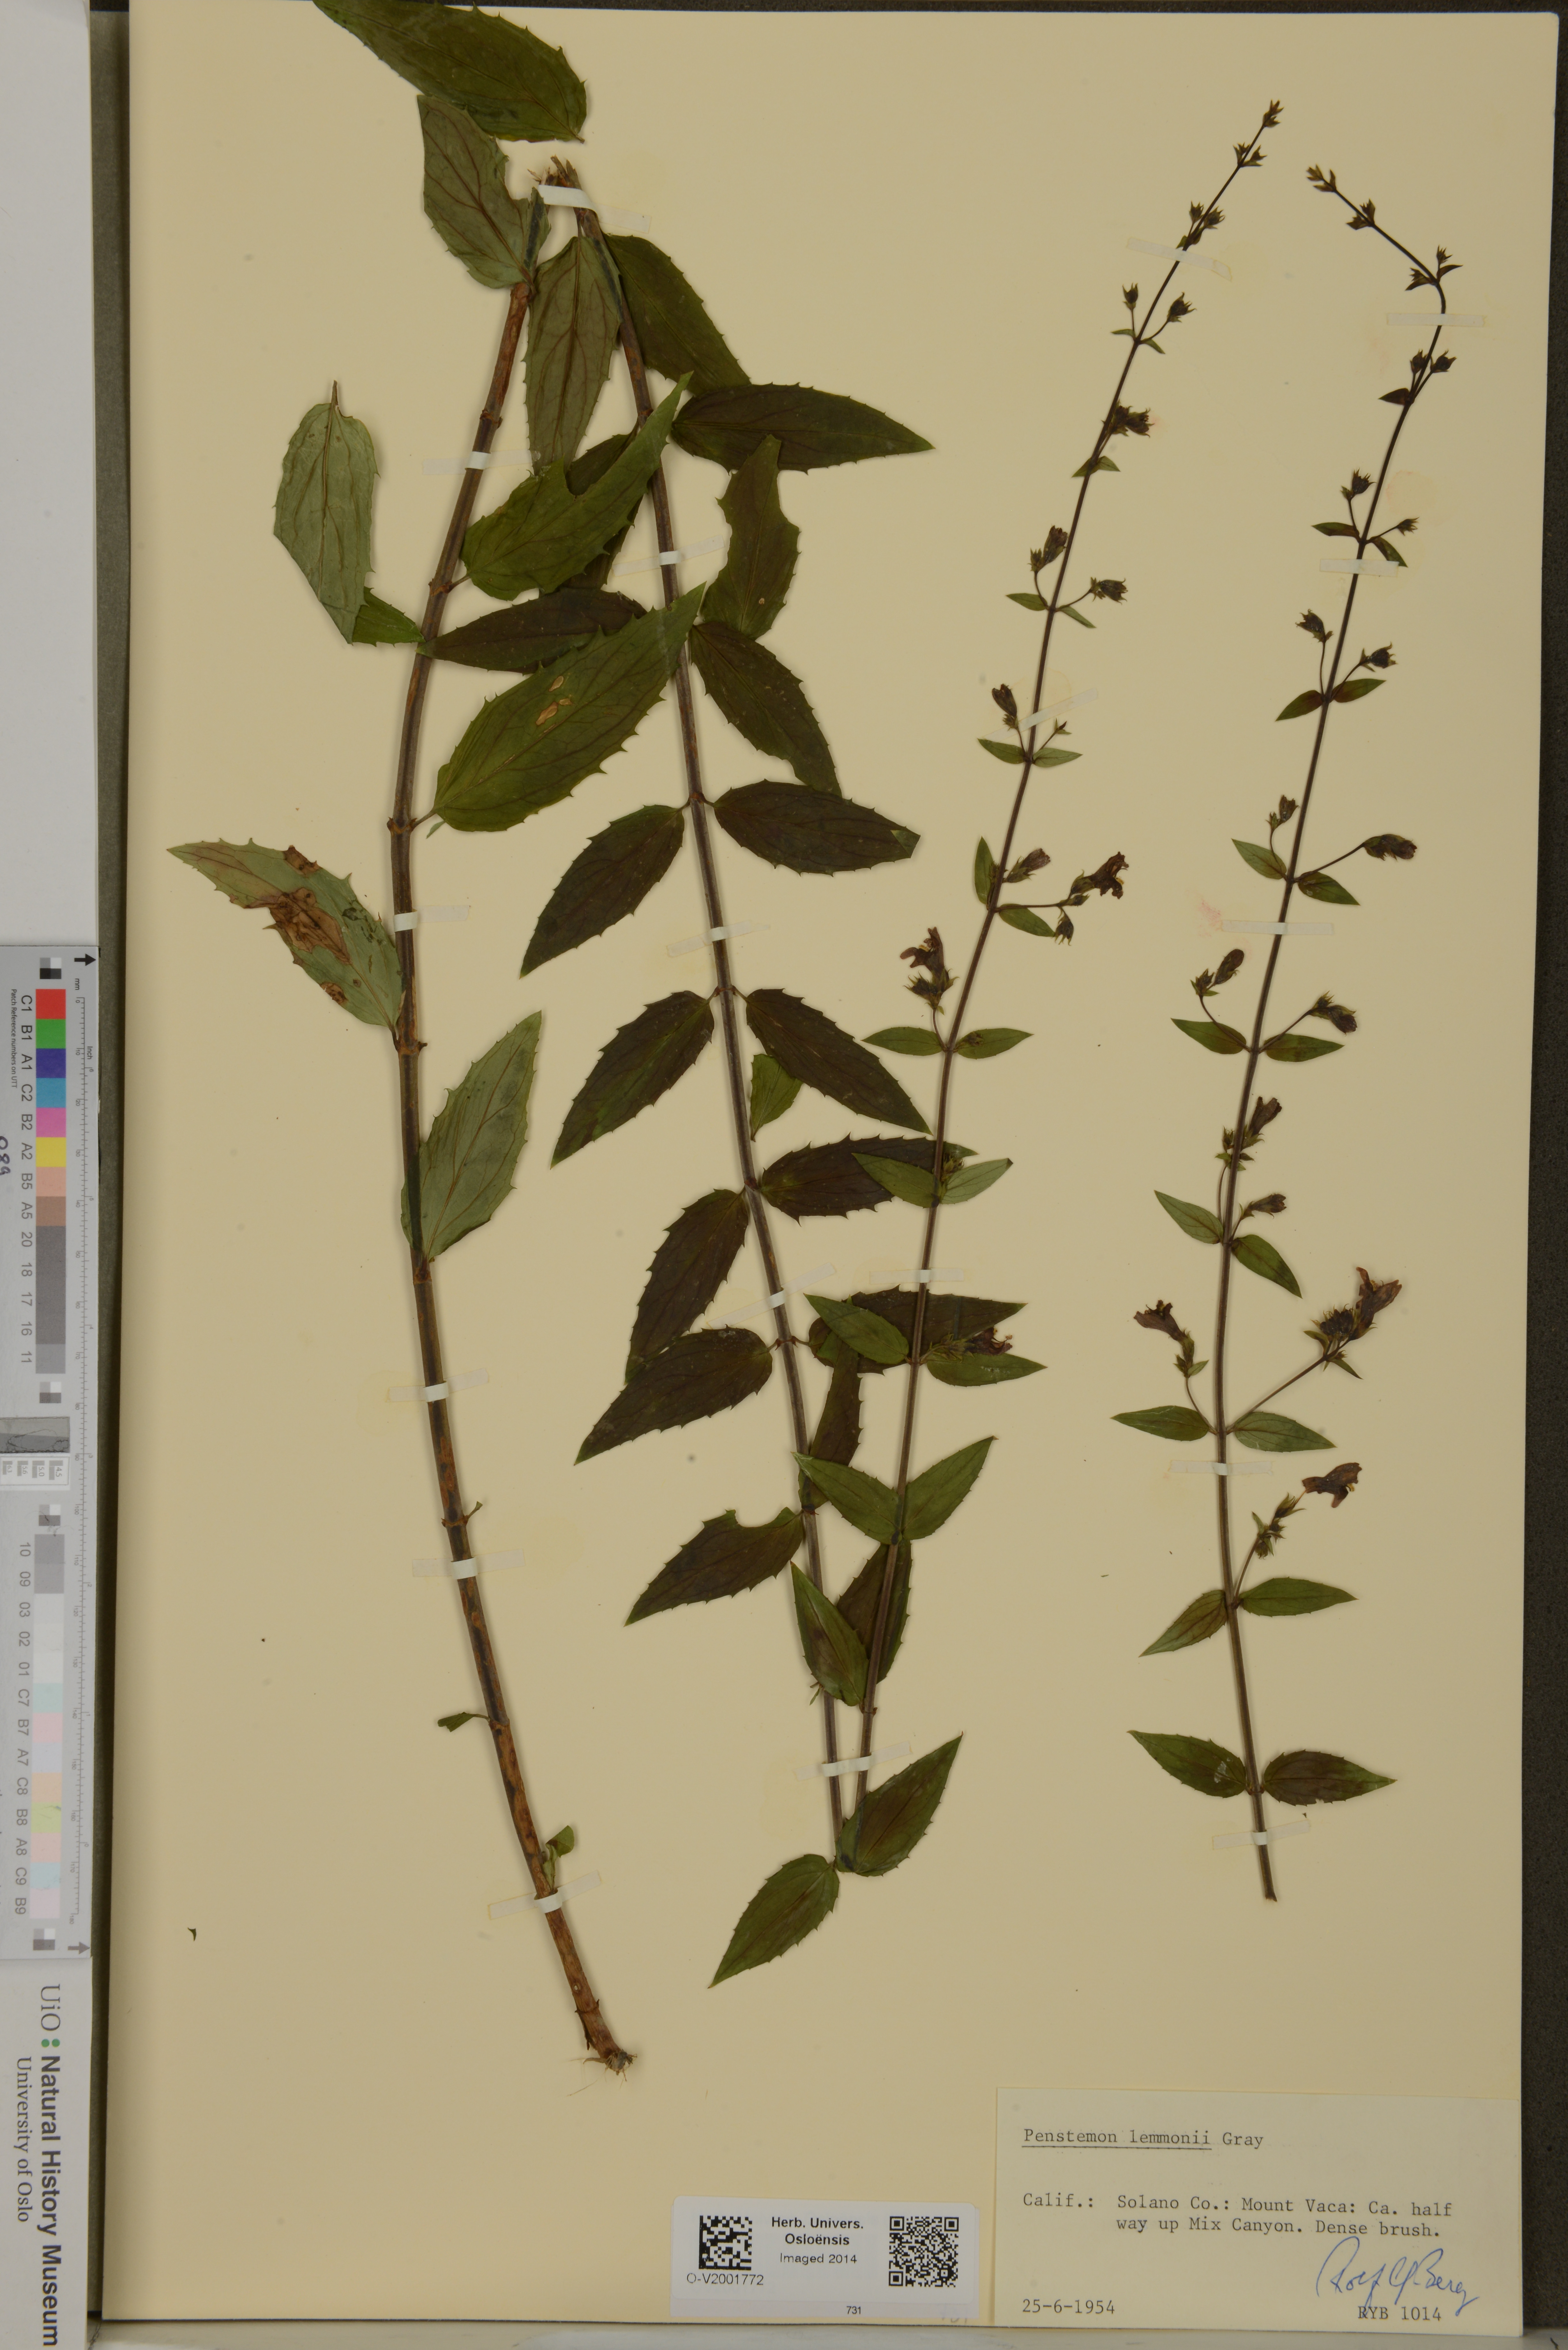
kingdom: Plantae
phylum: Tracheophyta
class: Magnoliopsida
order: Lamiales
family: Plantaginaceae
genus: Keckiella
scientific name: Keckiella lemmonii
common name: Lemmon's keckiella
